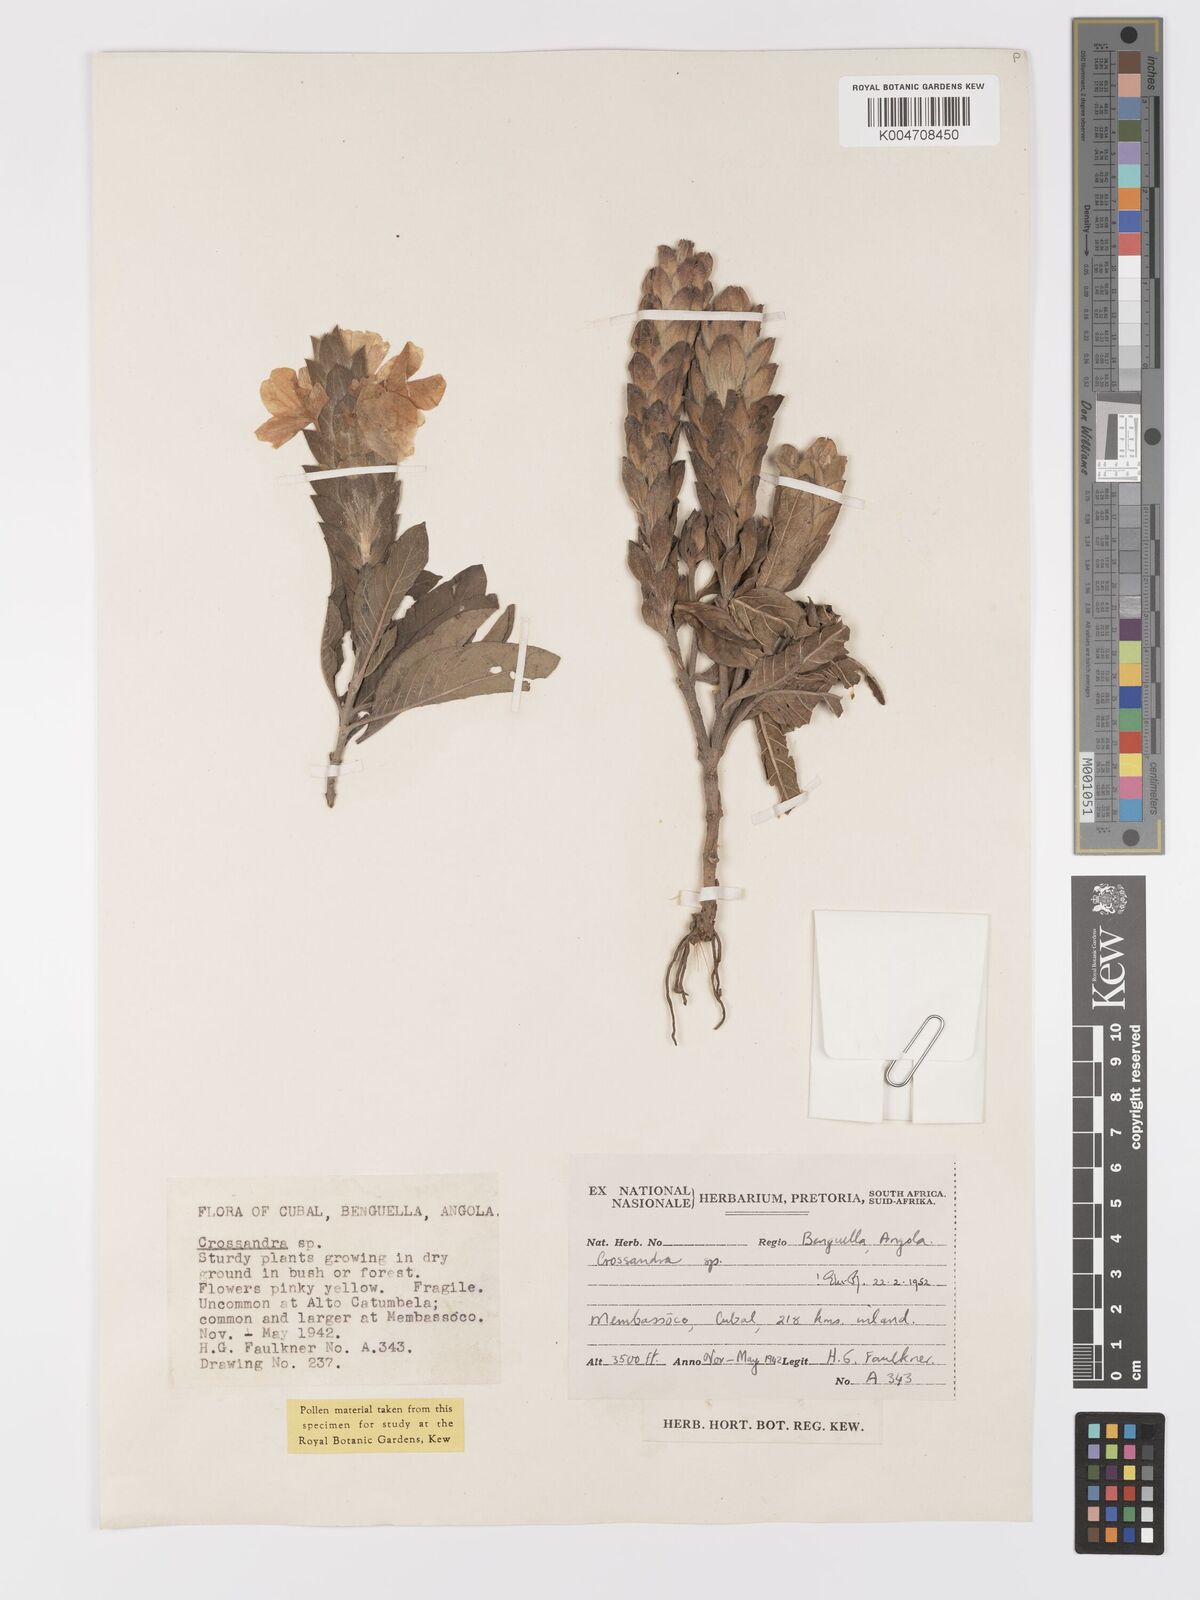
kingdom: Plantae
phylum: Tracheophyta
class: Magnoliopsida
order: Lamiales
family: Acanthaceae
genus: Crossandra
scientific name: Crossandra
